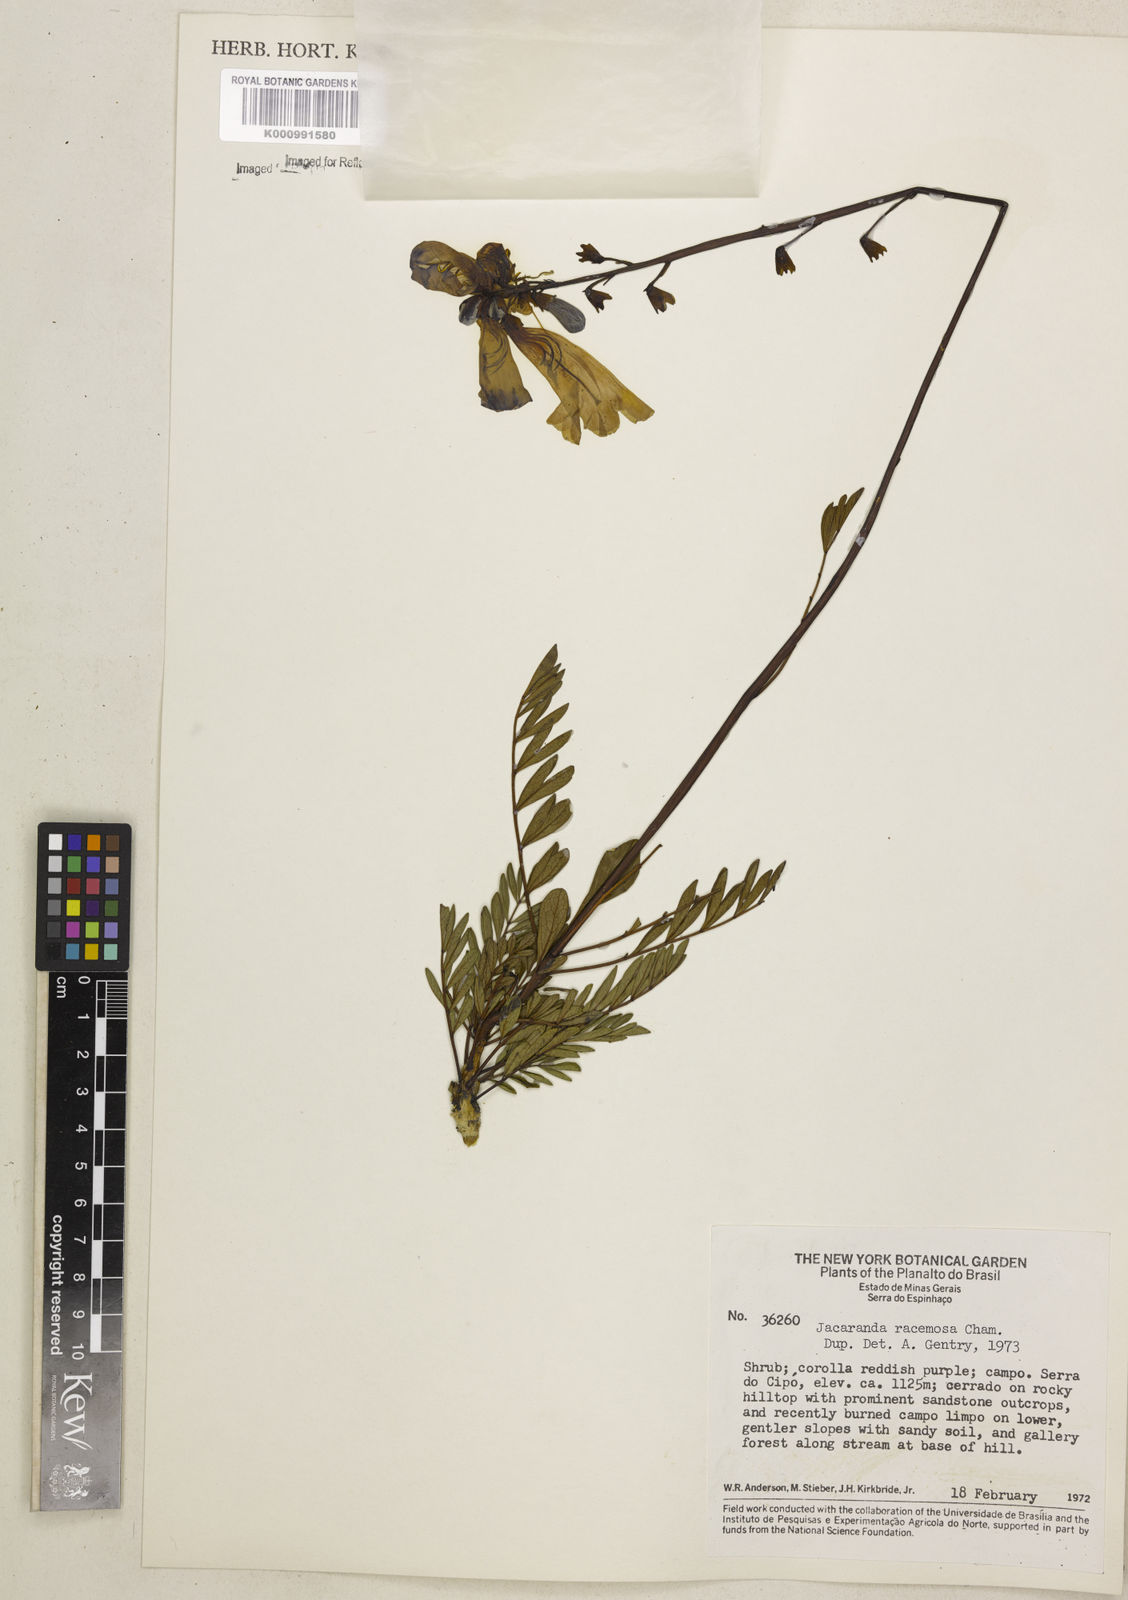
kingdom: Plantae
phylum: Tracheophyta
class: Magnoliopsida
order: Lamiales
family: Bignoniaceae
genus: Jacaranda
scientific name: Jacaranda racemosa
